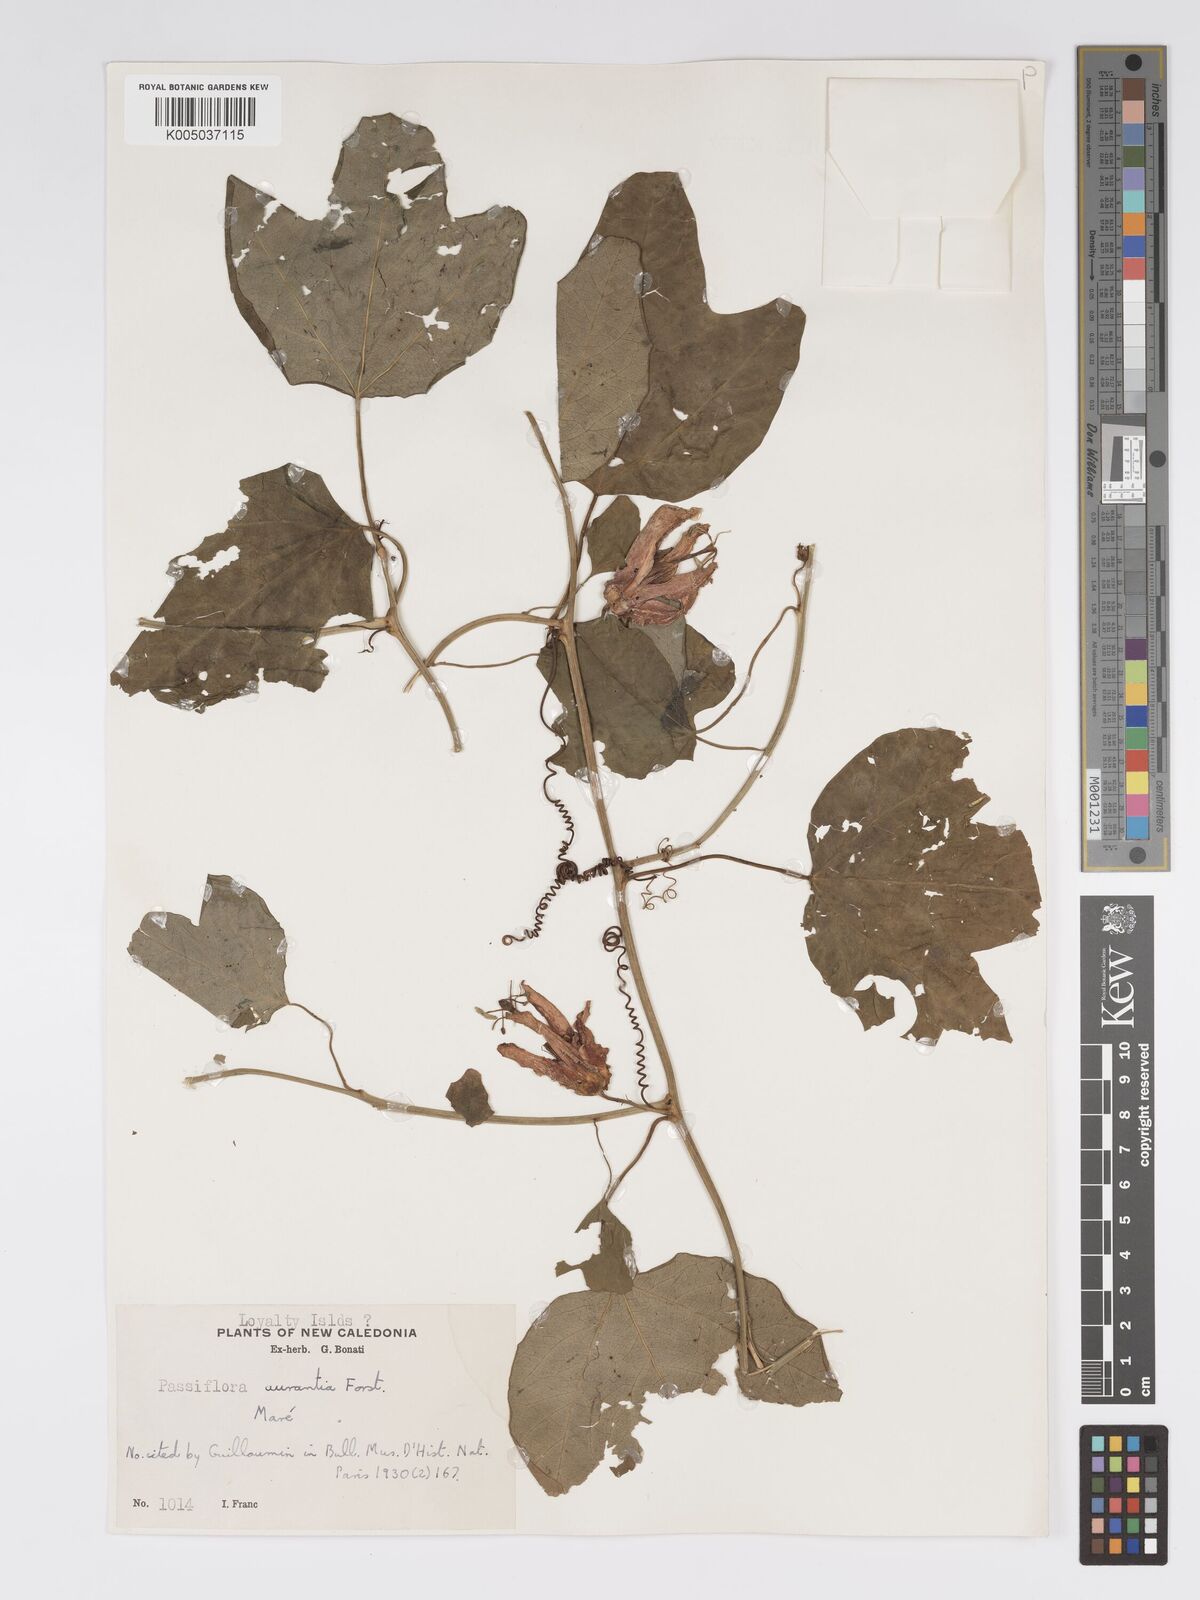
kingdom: Plantae
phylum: Tracheophyta
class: Magnoliopsida
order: Malpighiales
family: Passifloraceae
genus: Passiflora
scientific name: Passiflora aurantia
